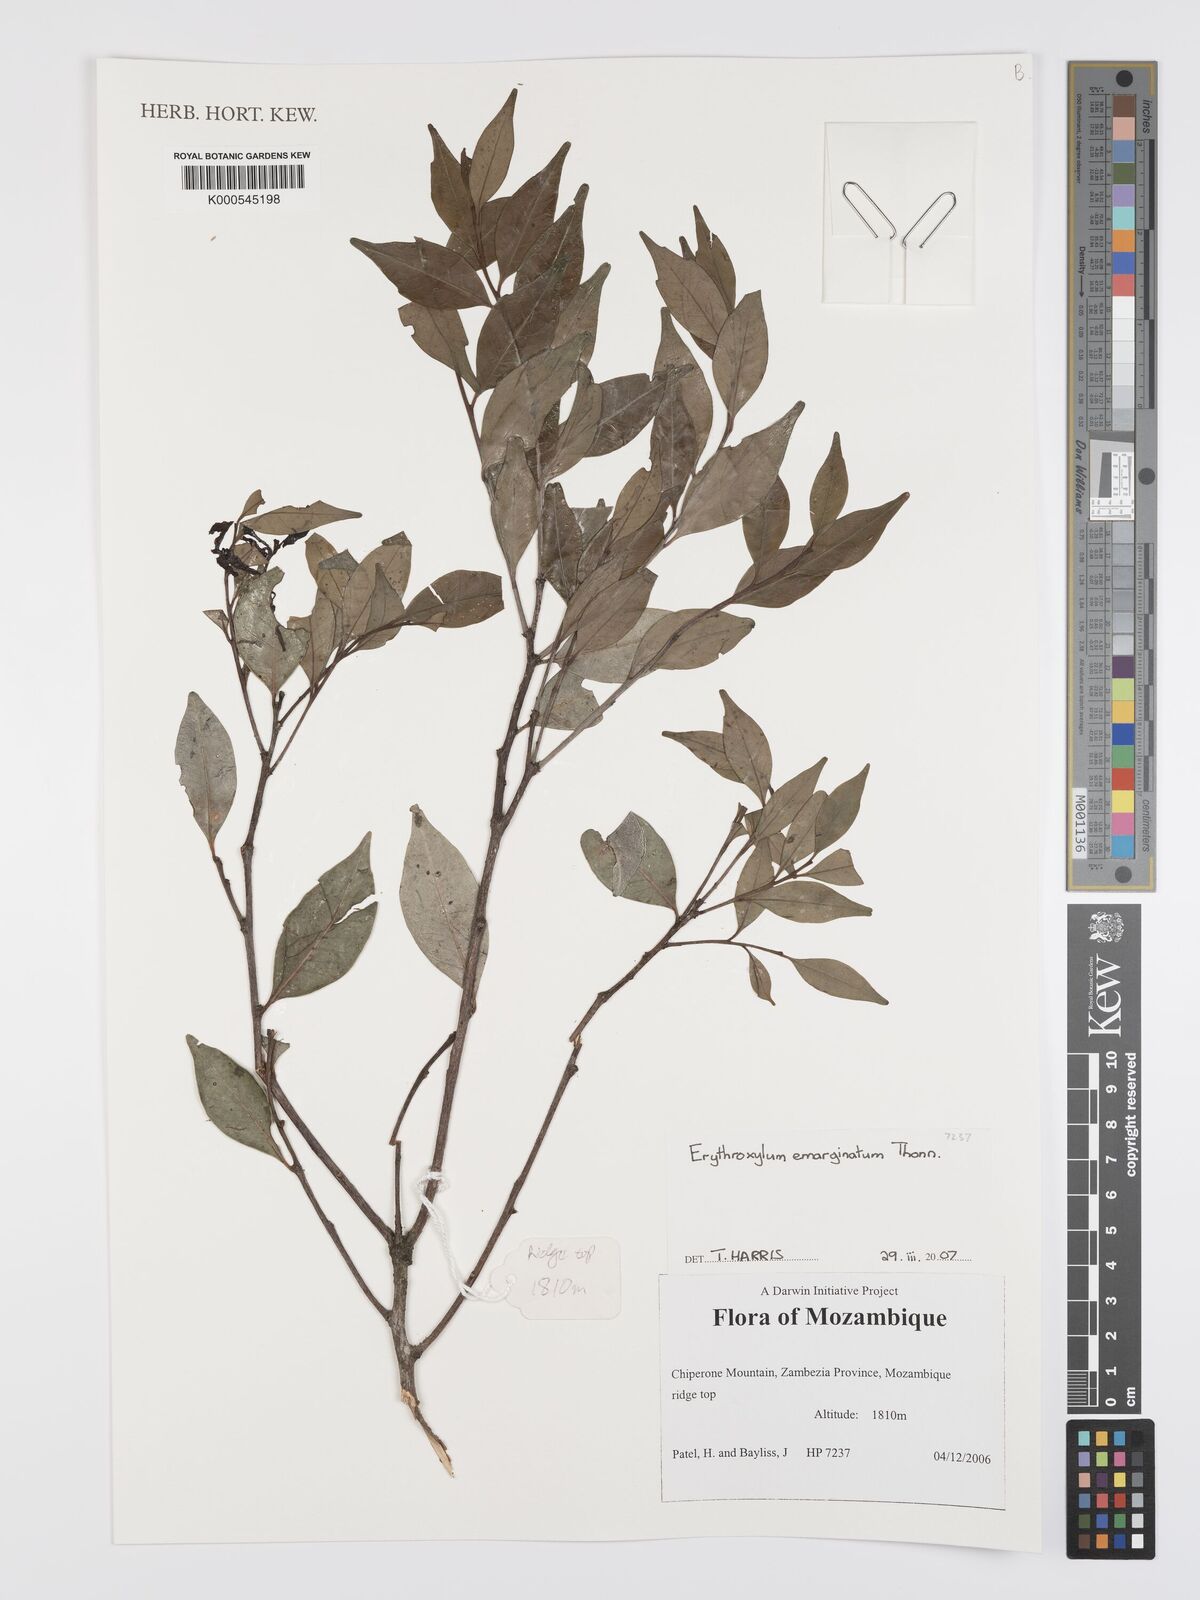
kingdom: Plantae
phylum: Tracheophyta
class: Magnoliopsida
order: Malpighiales
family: Erythroxylaceae
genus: Erythroxylum
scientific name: Erythroxylum emarginatum
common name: African coca-tree
